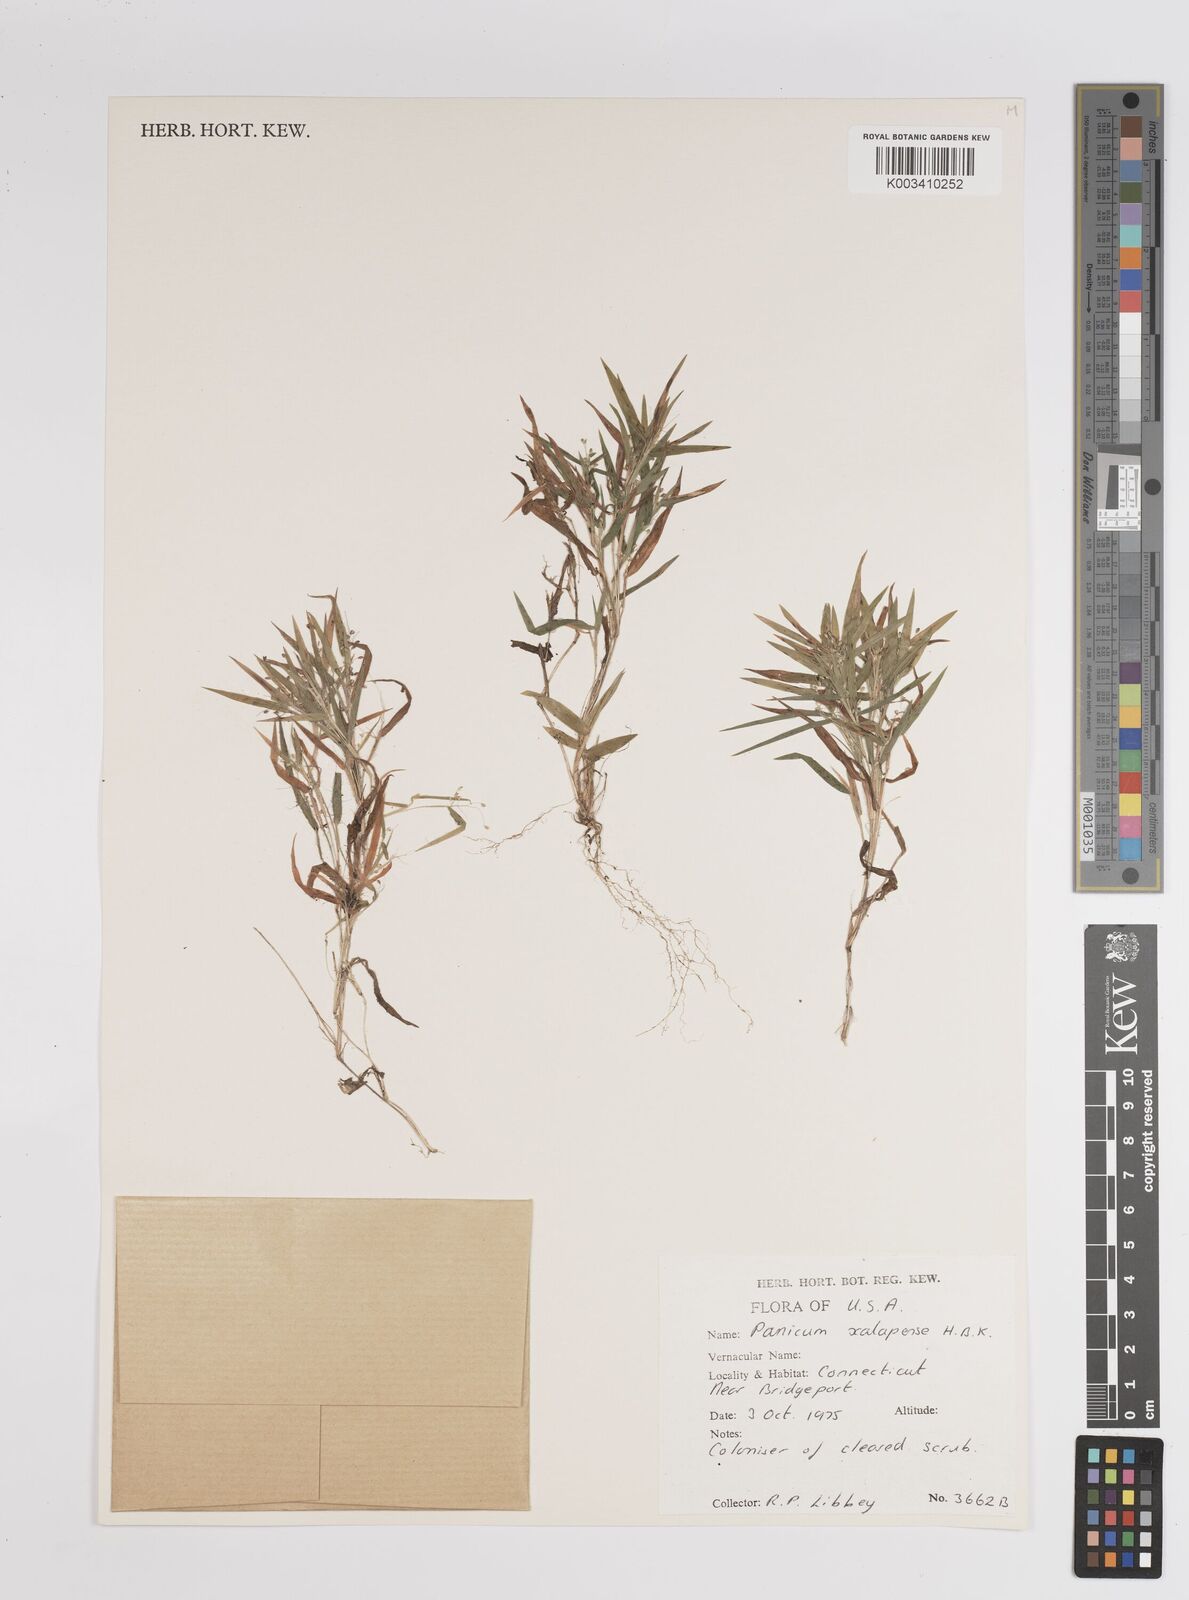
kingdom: Plantae
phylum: Tracheophyta
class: Liliopsida
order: Poales
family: Poaceae
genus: Dichanthelium
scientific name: Dichanthelium laxiflorum
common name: Soft-tuft panic grass
